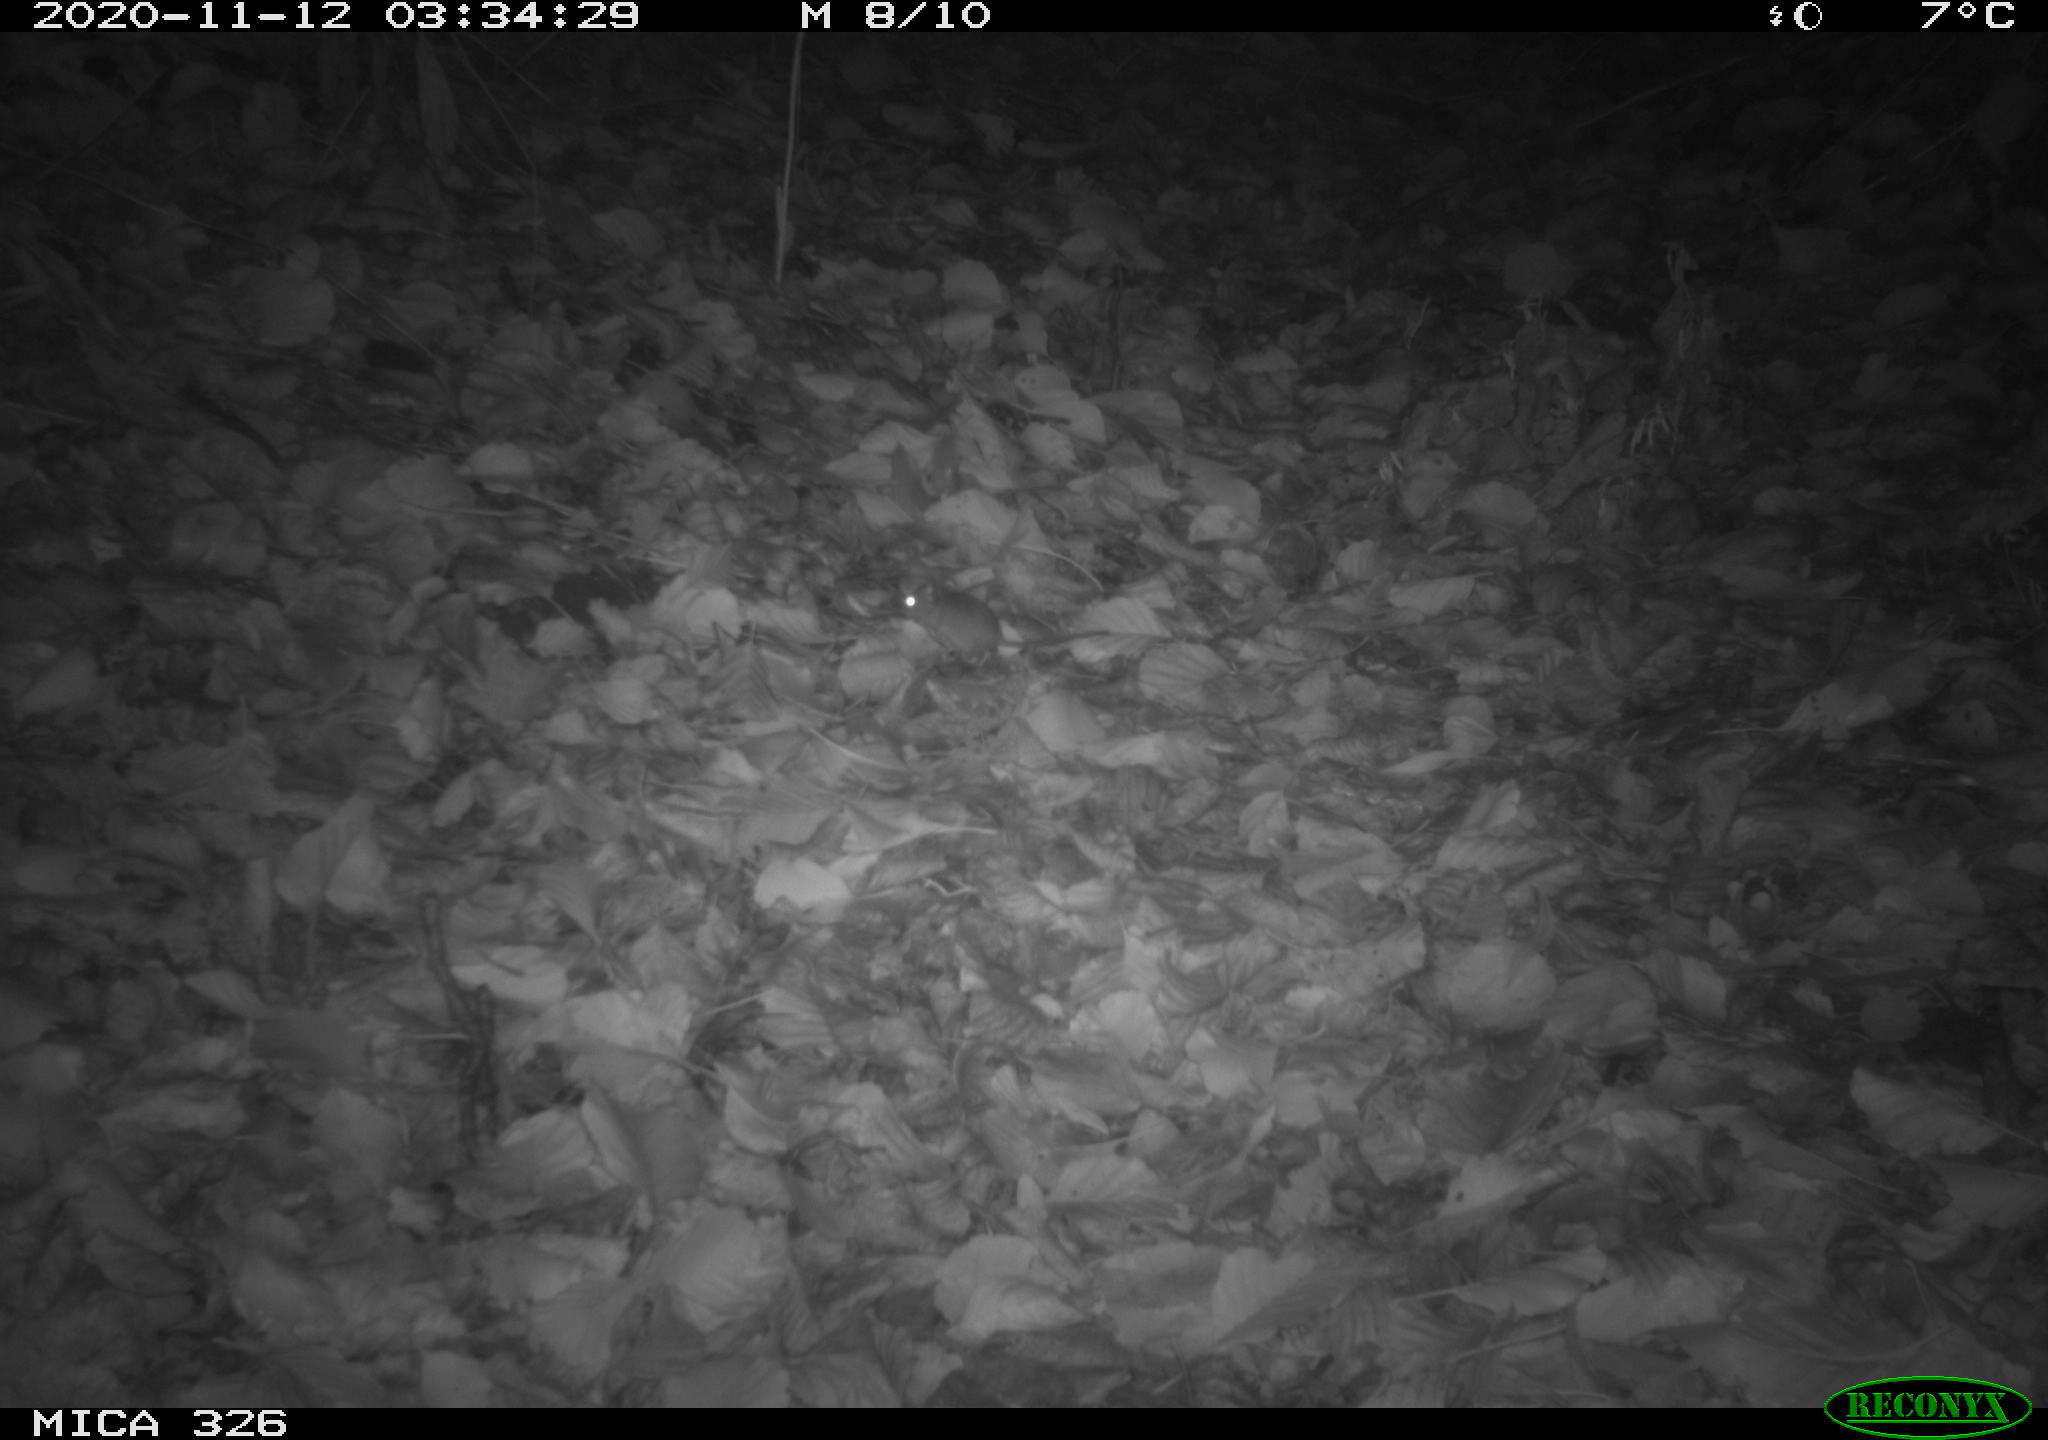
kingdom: Animalia
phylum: Chordata
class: Mammalia
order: Rodentia
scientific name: Rodentia
